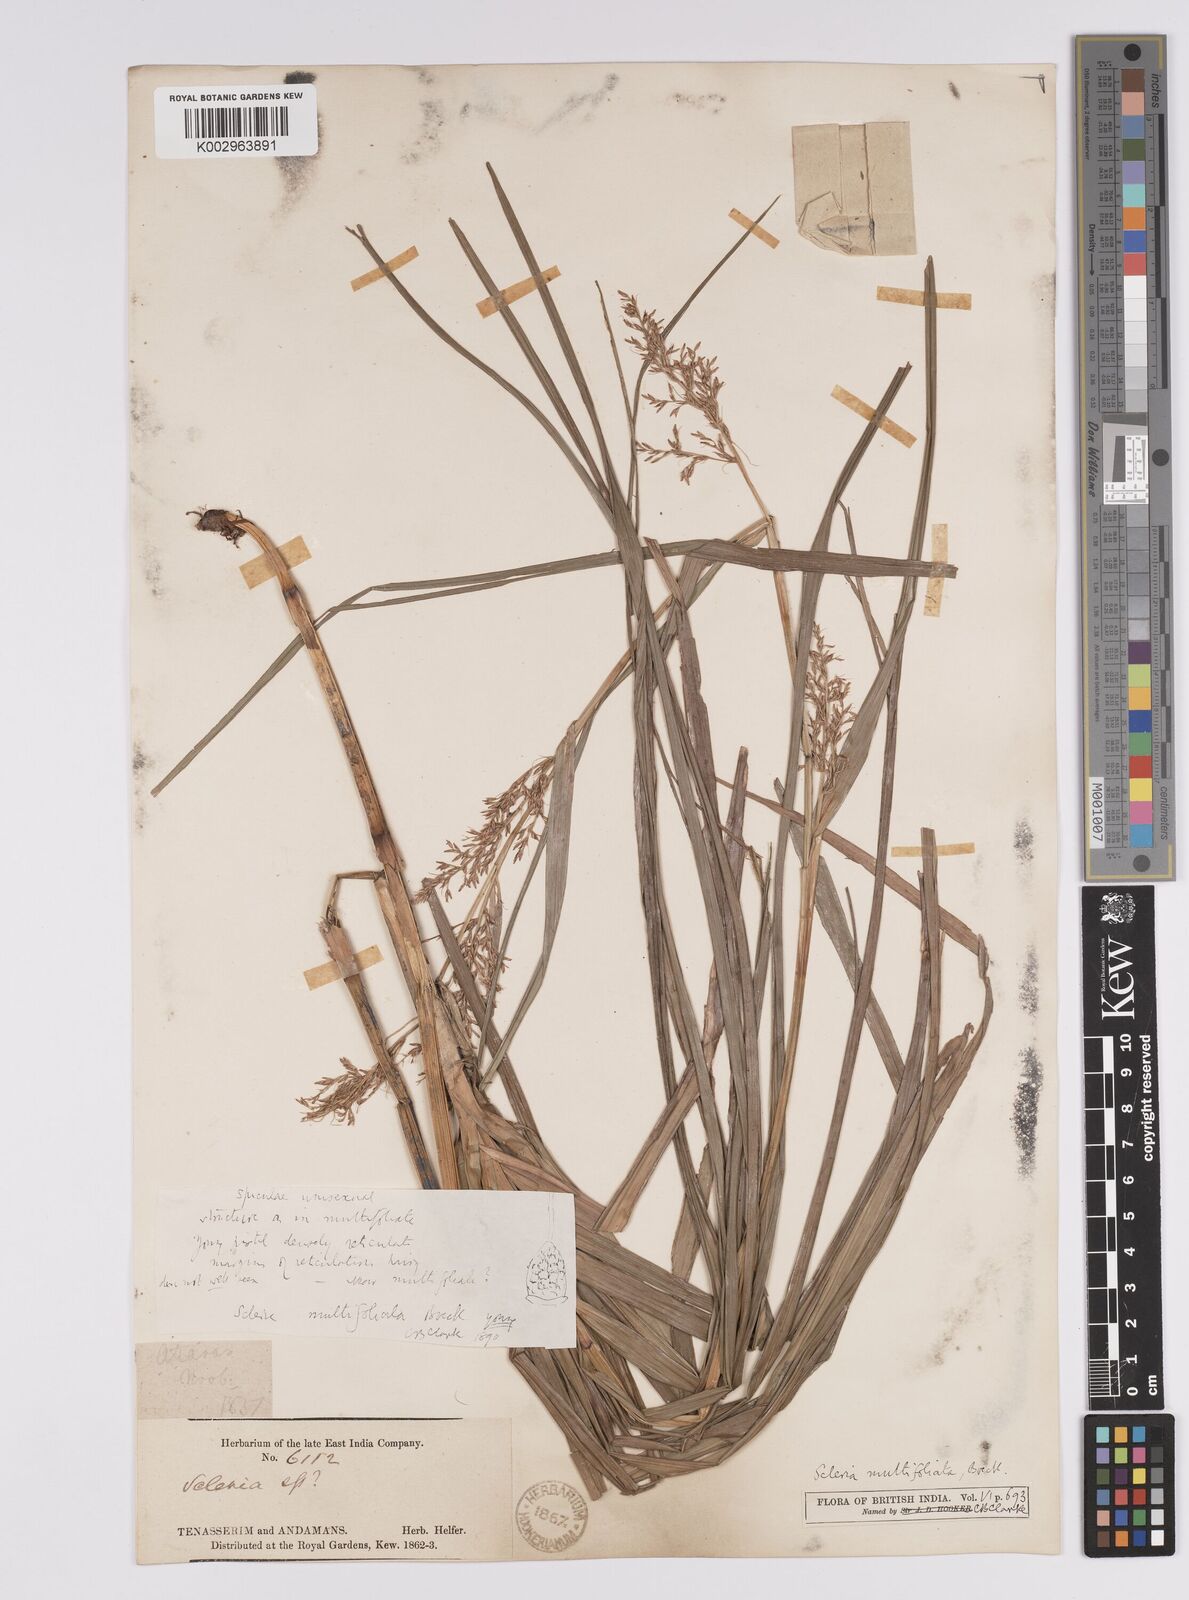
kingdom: Plantae
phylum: Tracheophyta
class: Liliopsida
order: Poales
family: Cyperaceae
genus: Scleria
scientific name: Scleria purpurascens
